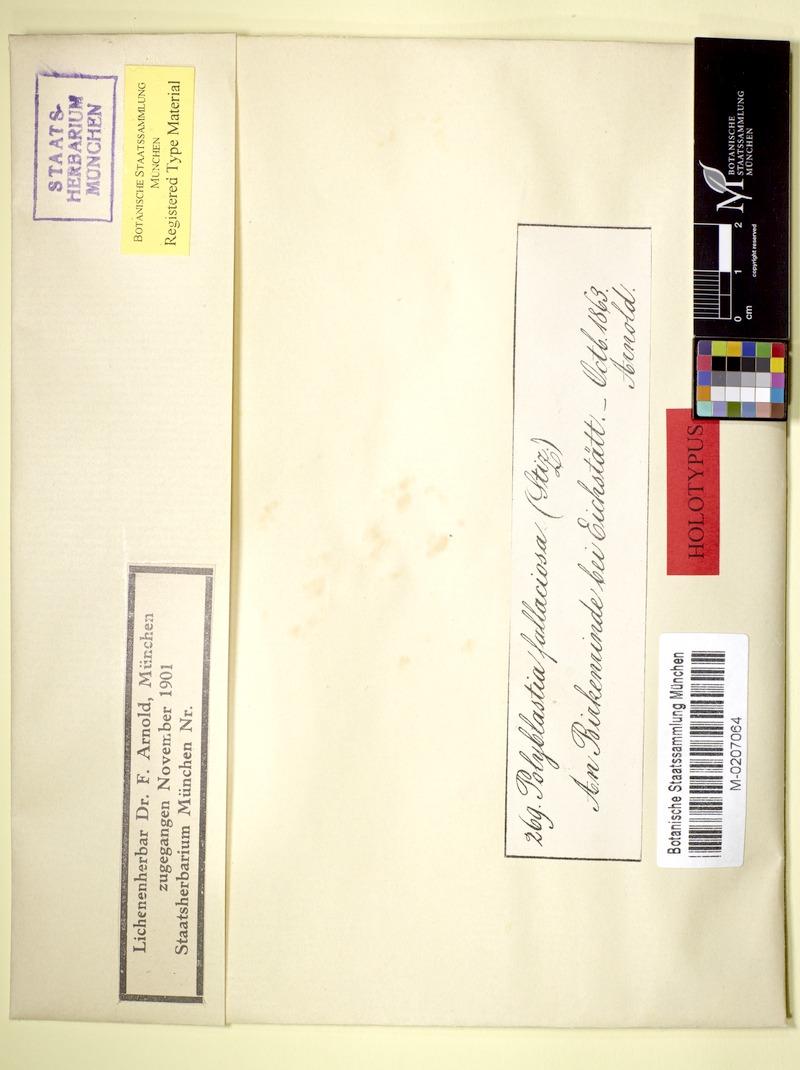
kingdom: Fungi
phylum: Ascomycota
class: Dothideomycetes
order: Trypetheliales
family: Trypetheliaceae
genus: Arthopyrenia
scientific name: Arthopyrenia fallaciosa
